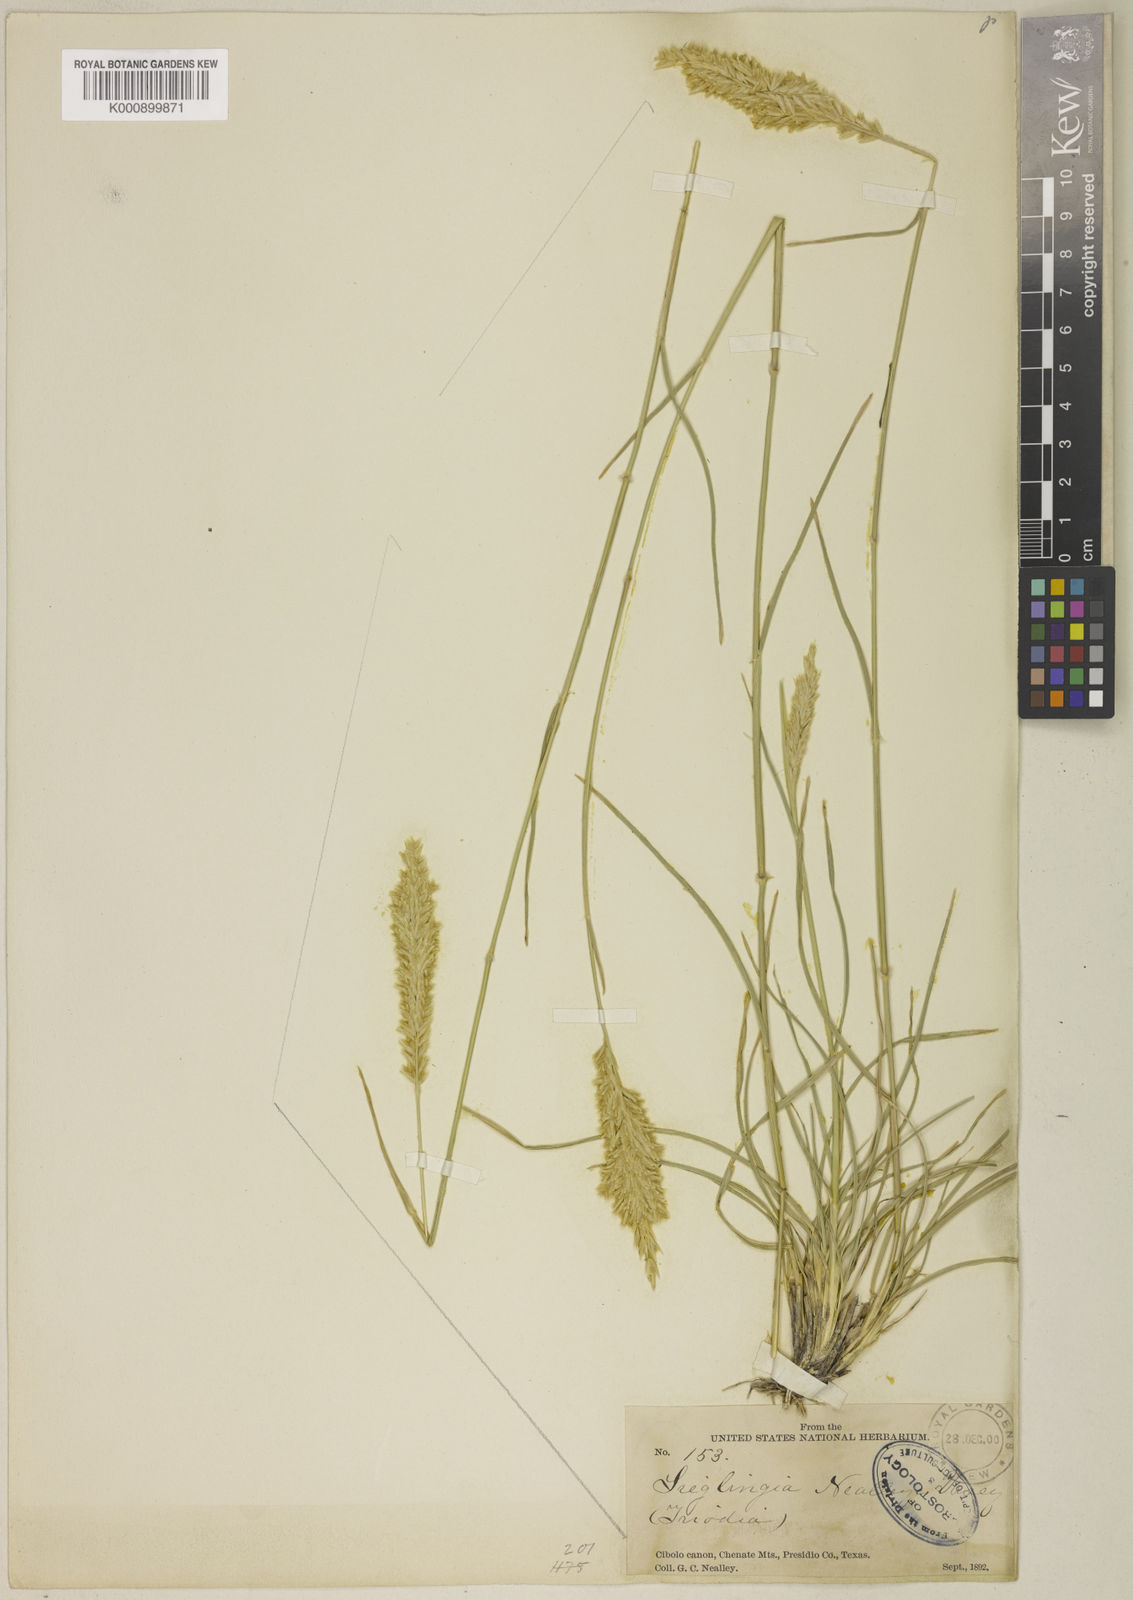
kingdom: Plantae
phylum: Tracheophyta
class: Liliopsida
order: Poales
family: Poaceae
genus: Erioneuron
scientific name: Erioneuron avenaceum
